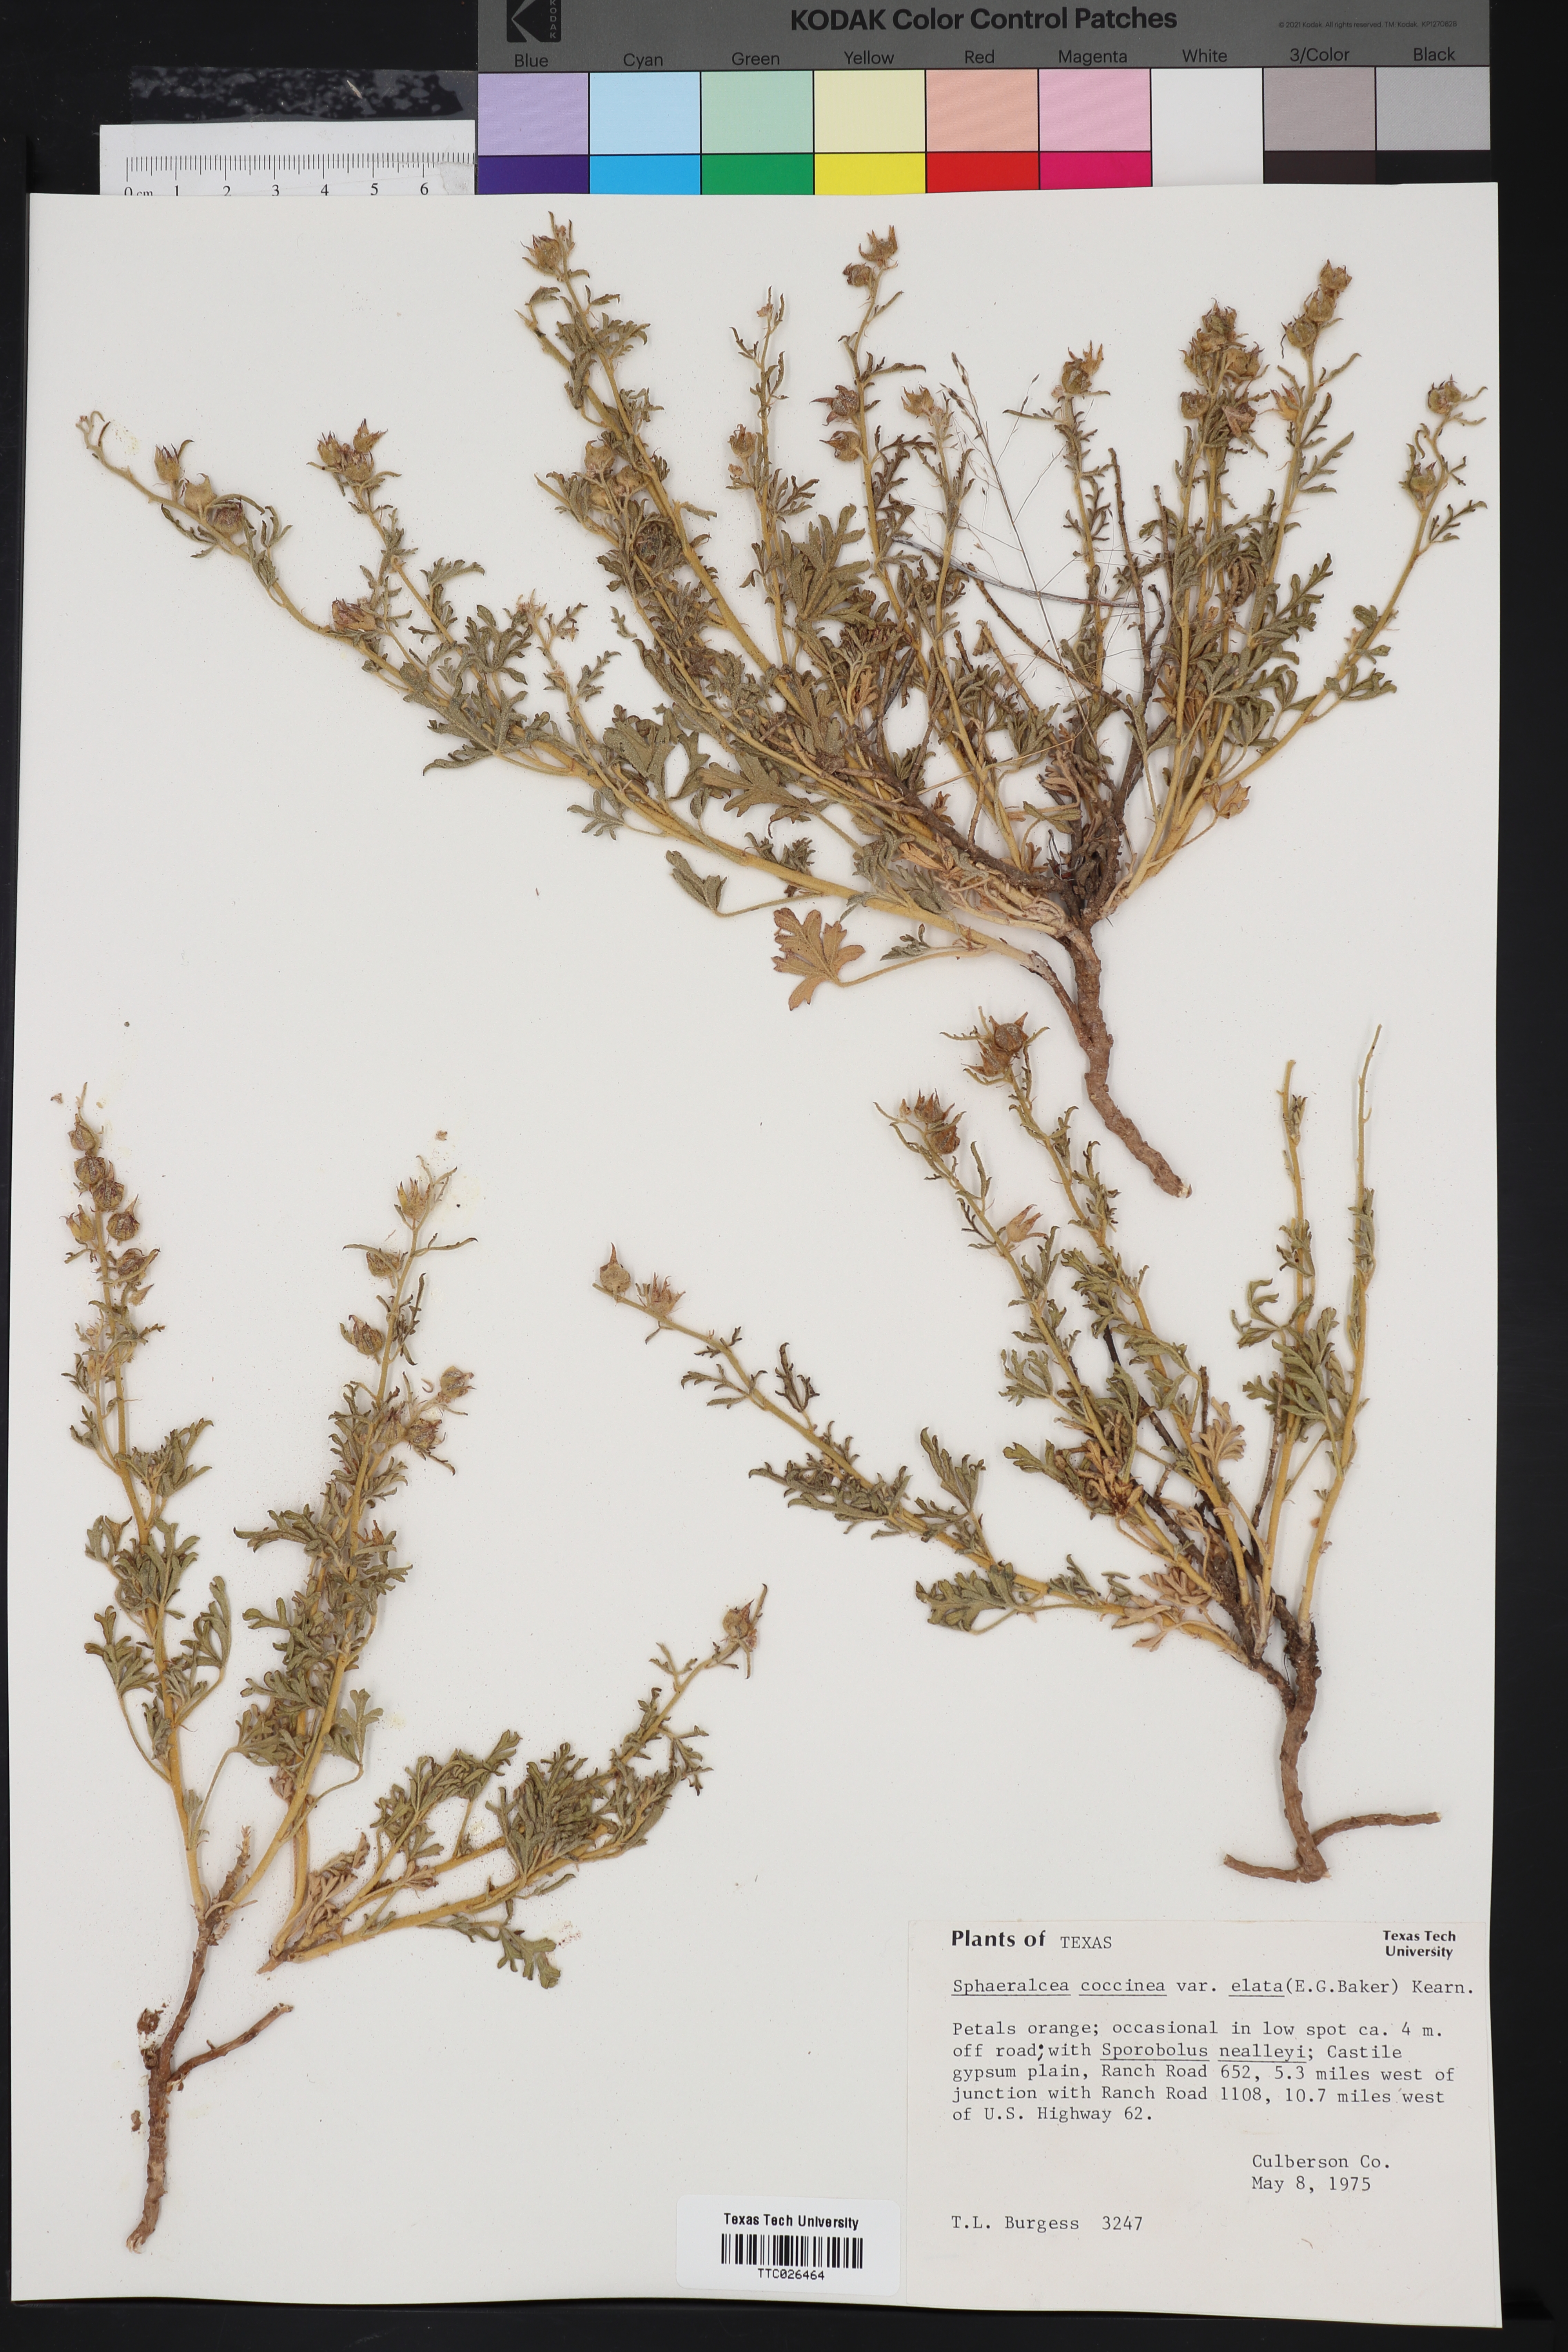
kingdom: Plantae
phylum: Tracheophyta
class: Magnoliopsida
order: Malvales
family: Malvaceae
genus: Sphaeralcea
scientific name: Sphaeralcea coccinea
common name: Moss-rose
